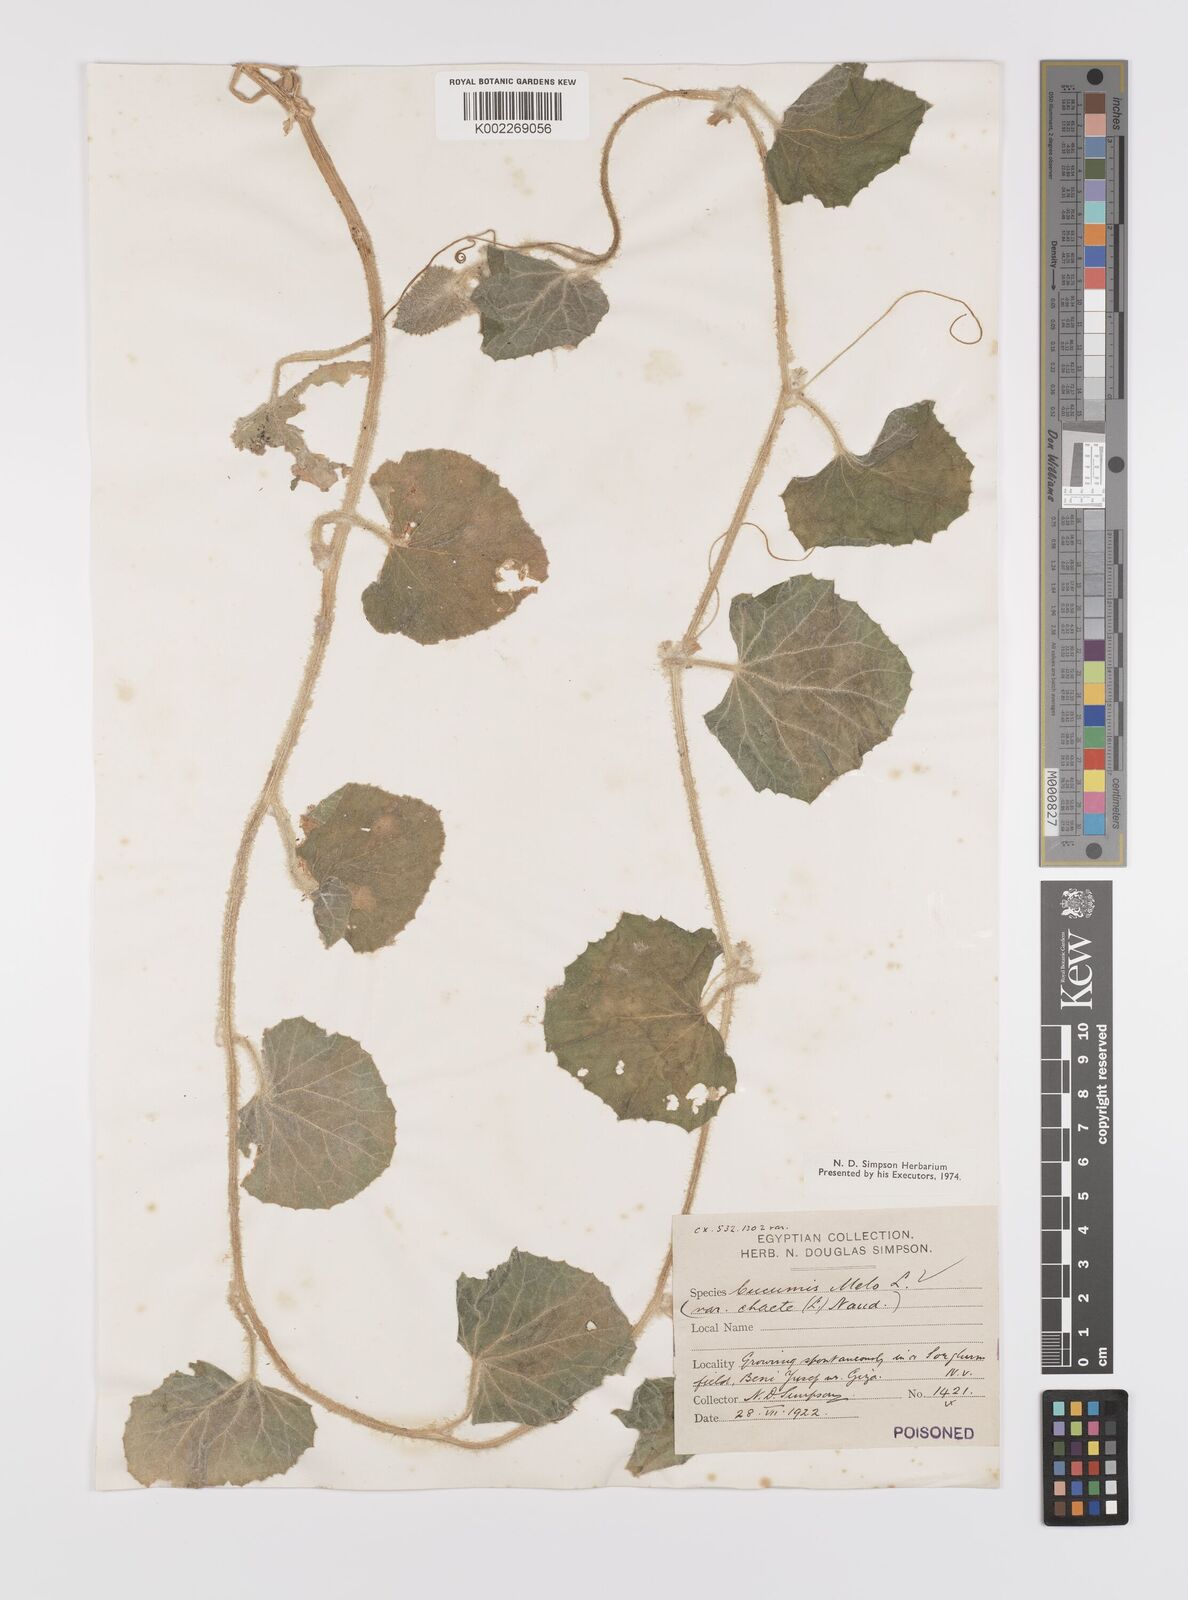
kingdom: Plantae
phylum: Tracheophyta
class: Magnoliopsida
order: Cucurbitales
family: Cucurbitaceae
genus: Cucumis
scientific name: Cucumis melo
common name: Melon
